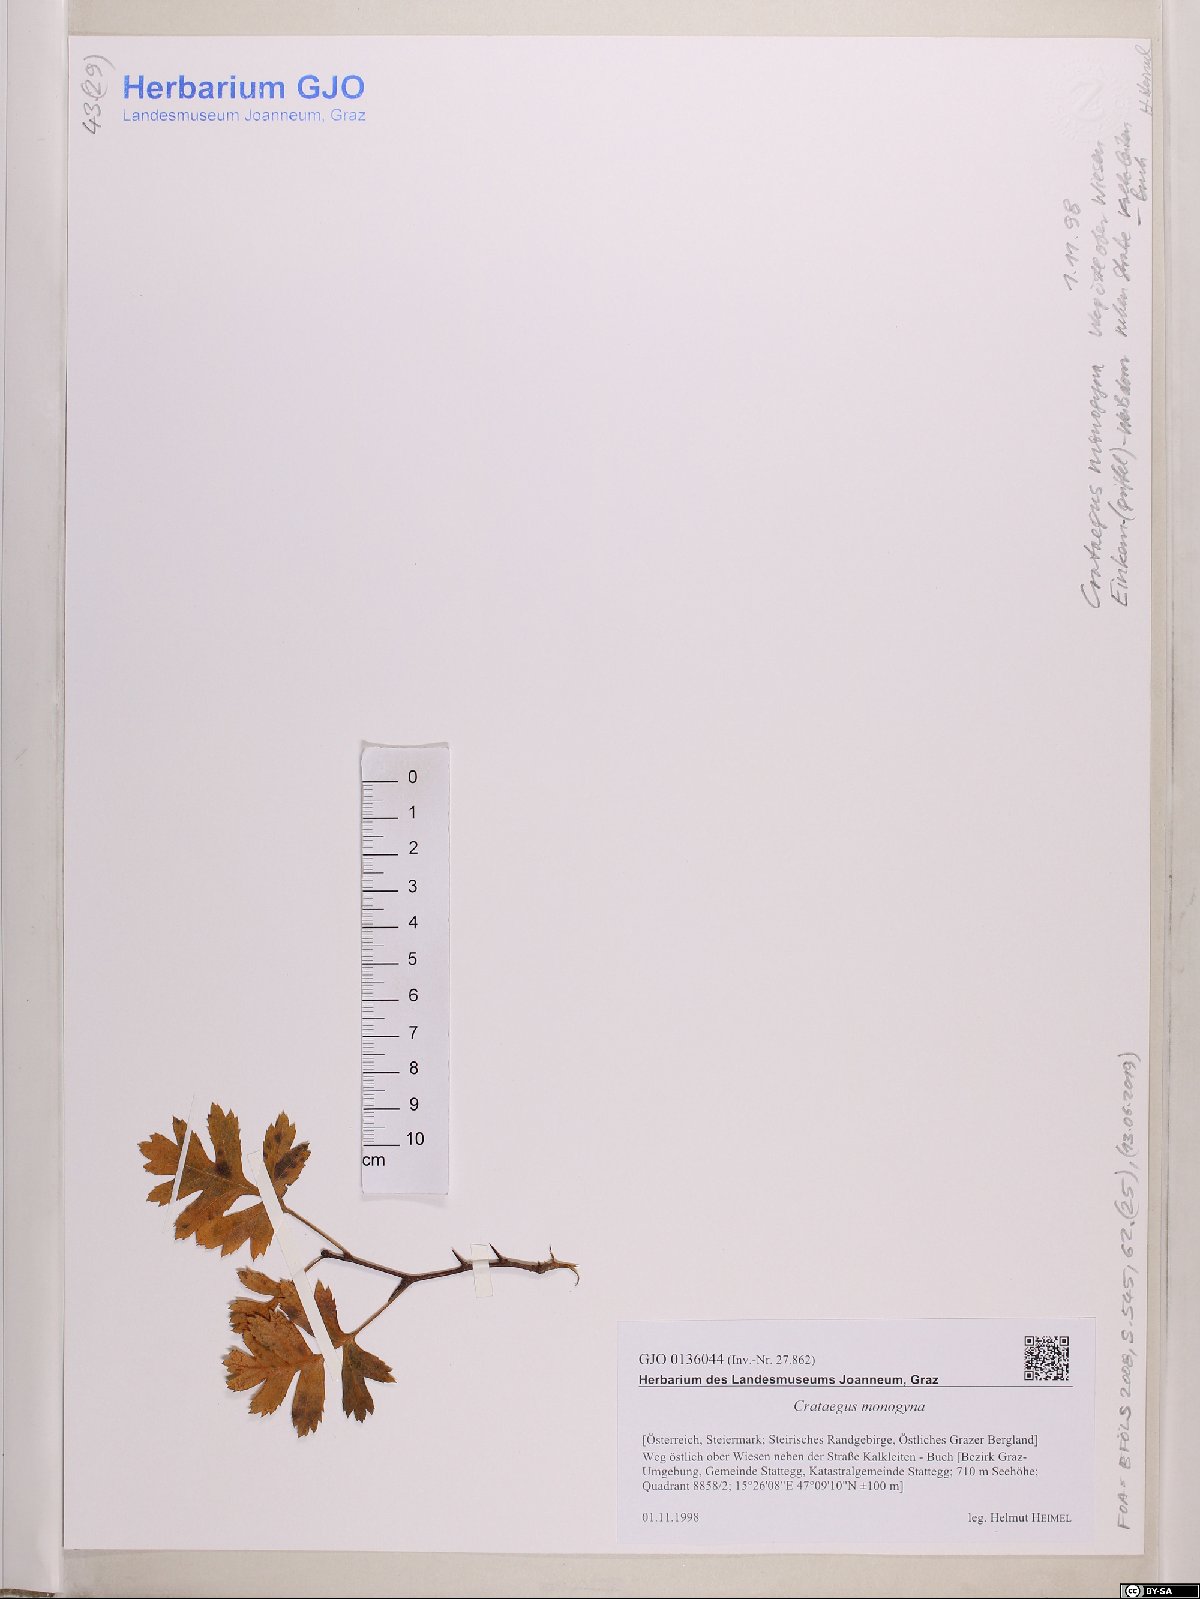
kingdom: Plantae
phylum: Tracheophyta
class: Magnoliopsida
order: Rosales
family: Rosaceae
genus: Crataegus
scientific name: Crataegus monogyna
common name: Hawthorn
